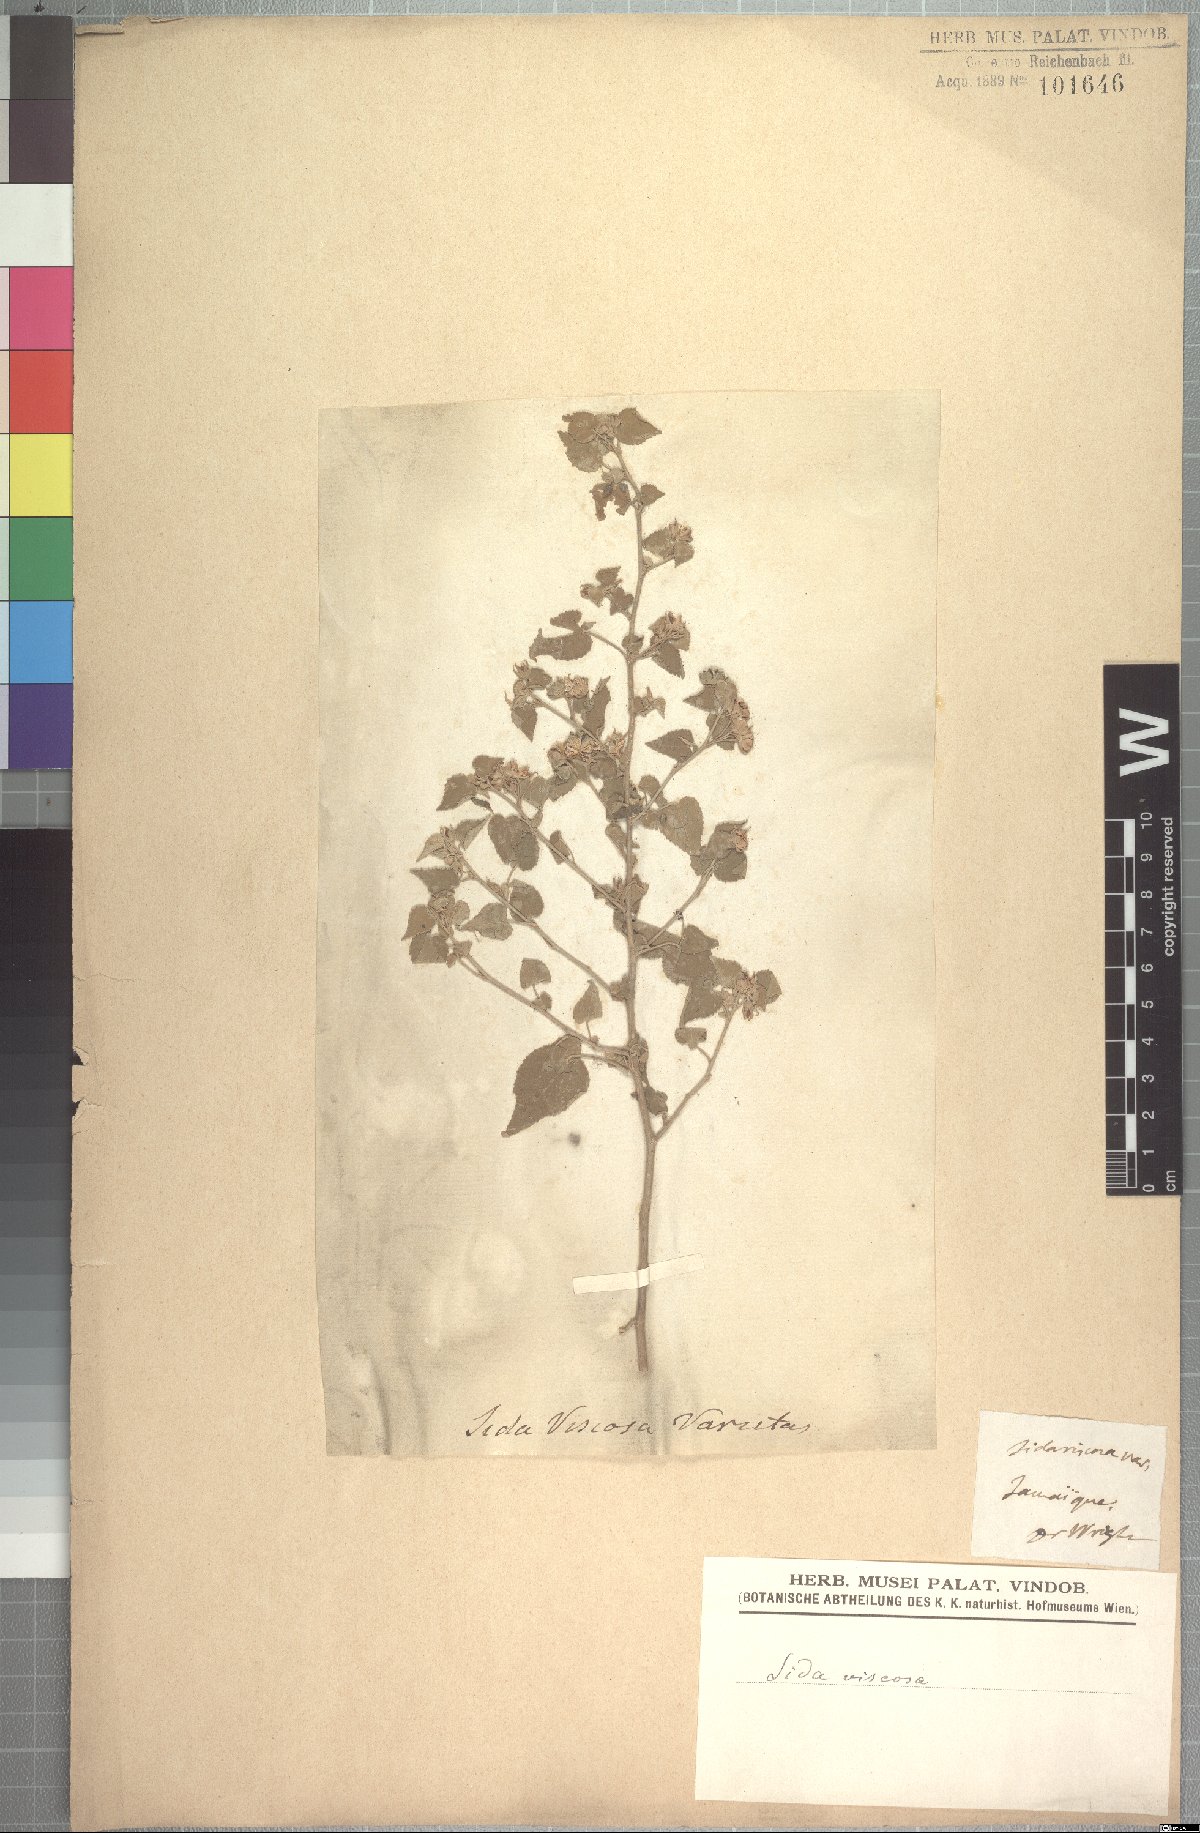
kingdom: Plantae
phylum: Tracheophyta
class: Magnoliopsida
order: Malvales
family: Malvaceae
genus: Abutilon
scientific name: Abutilon viscosum
